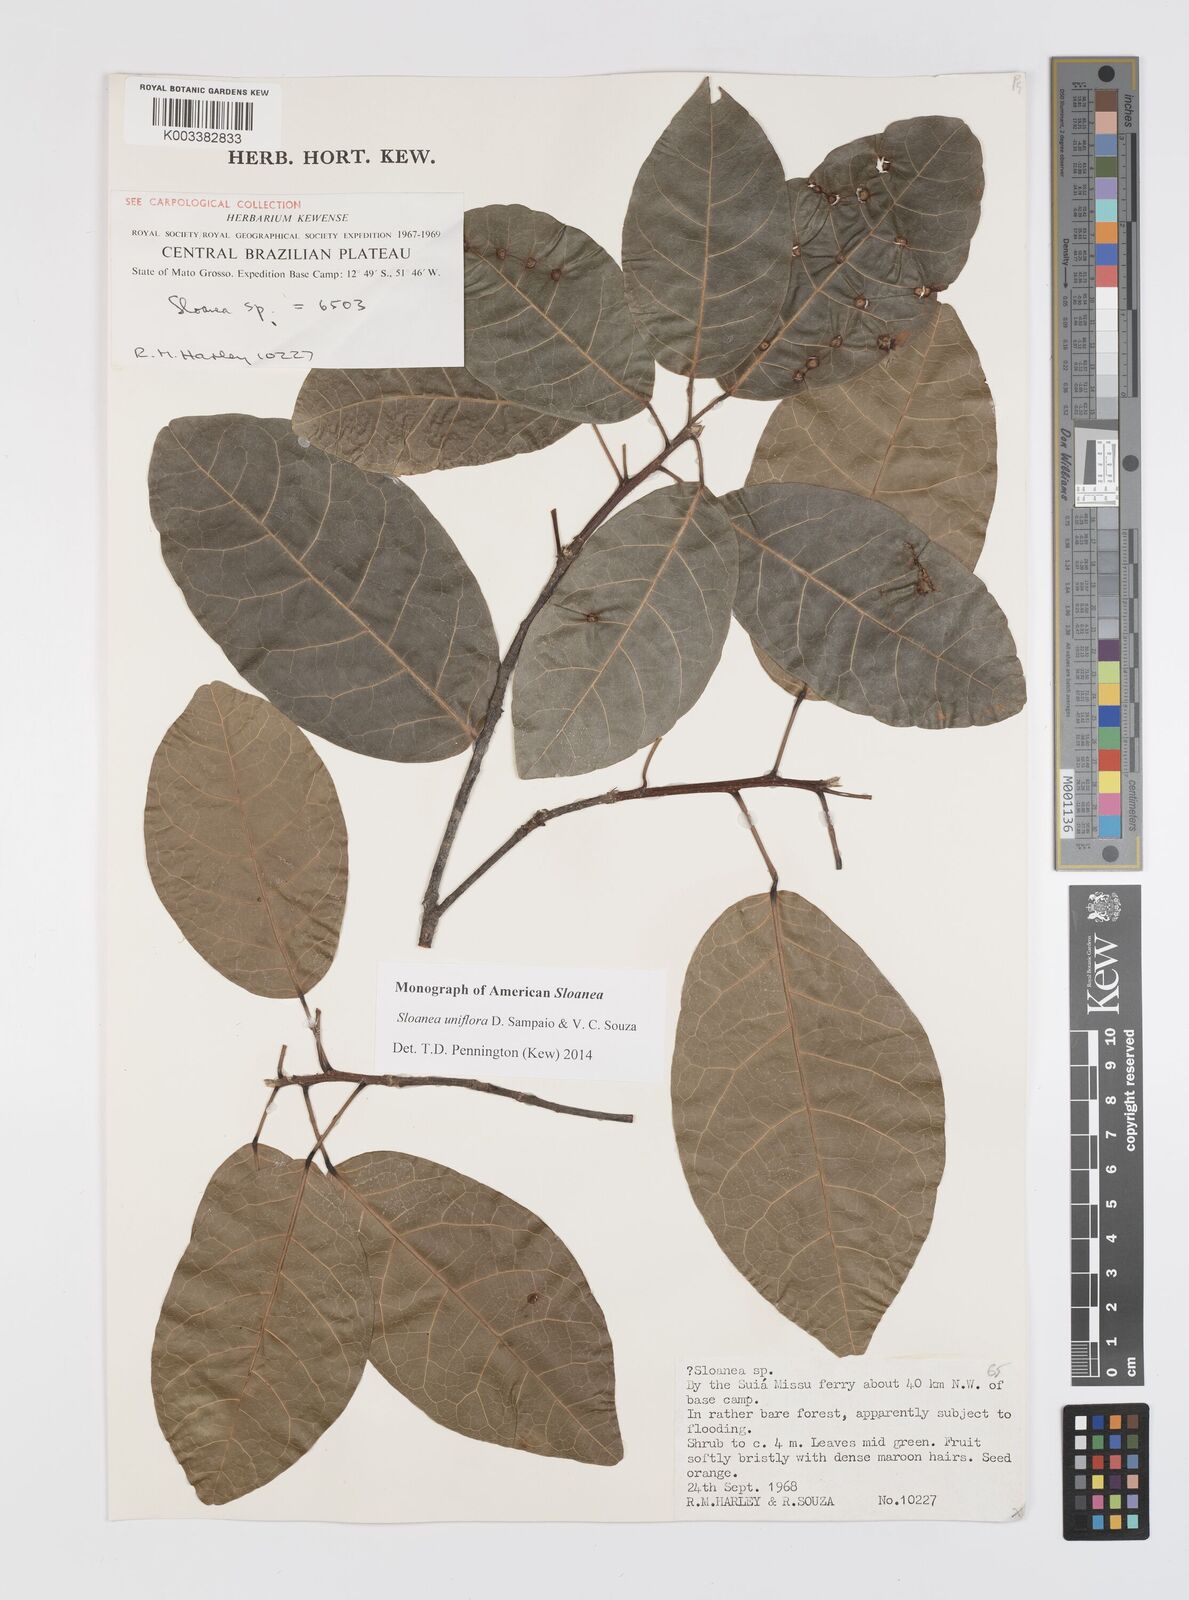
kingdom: Plantae
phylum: Tracheophyta
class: Magnoliopsida
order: Oxalidales
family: Elaeocarpaceae
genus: Sloanea
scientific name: Sloanea uniflora
